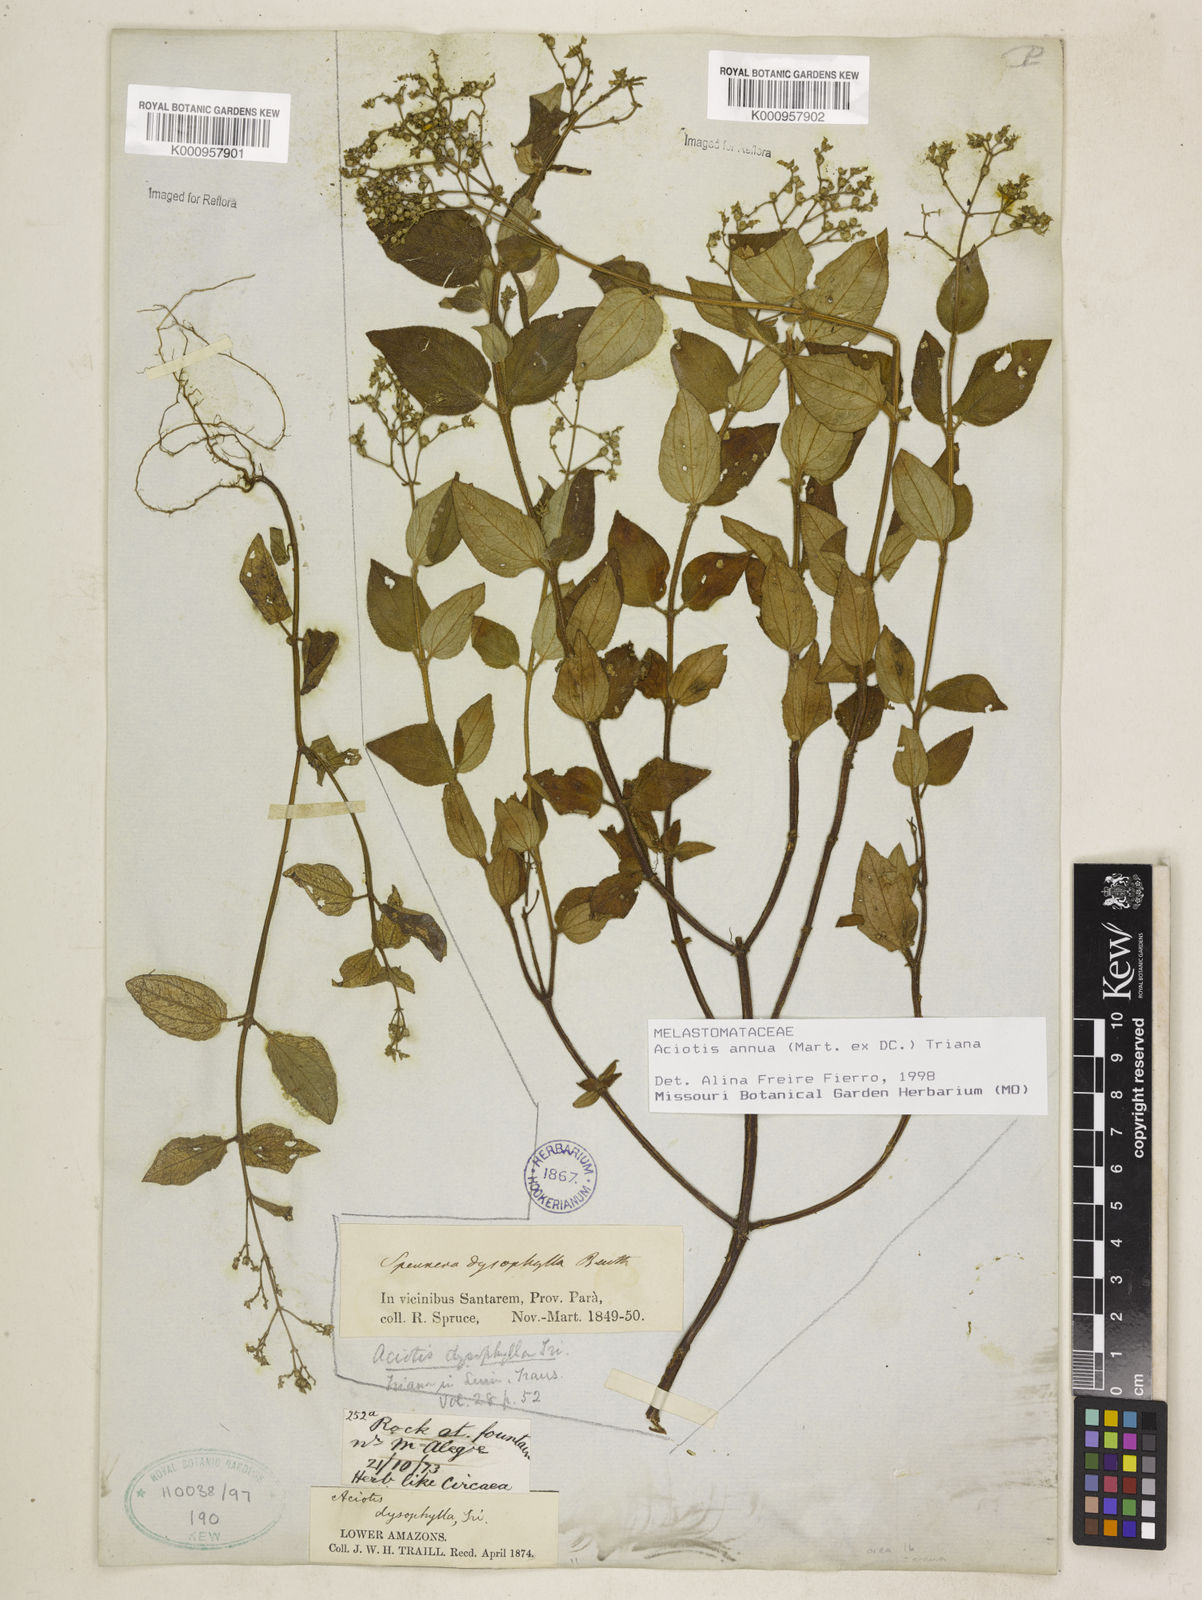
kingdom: Plantae
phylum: Tracheophyta
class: Magnoliopsida
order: Myrtales
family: Melastomataceae
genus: Aciotis
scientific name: Aciotis annua
